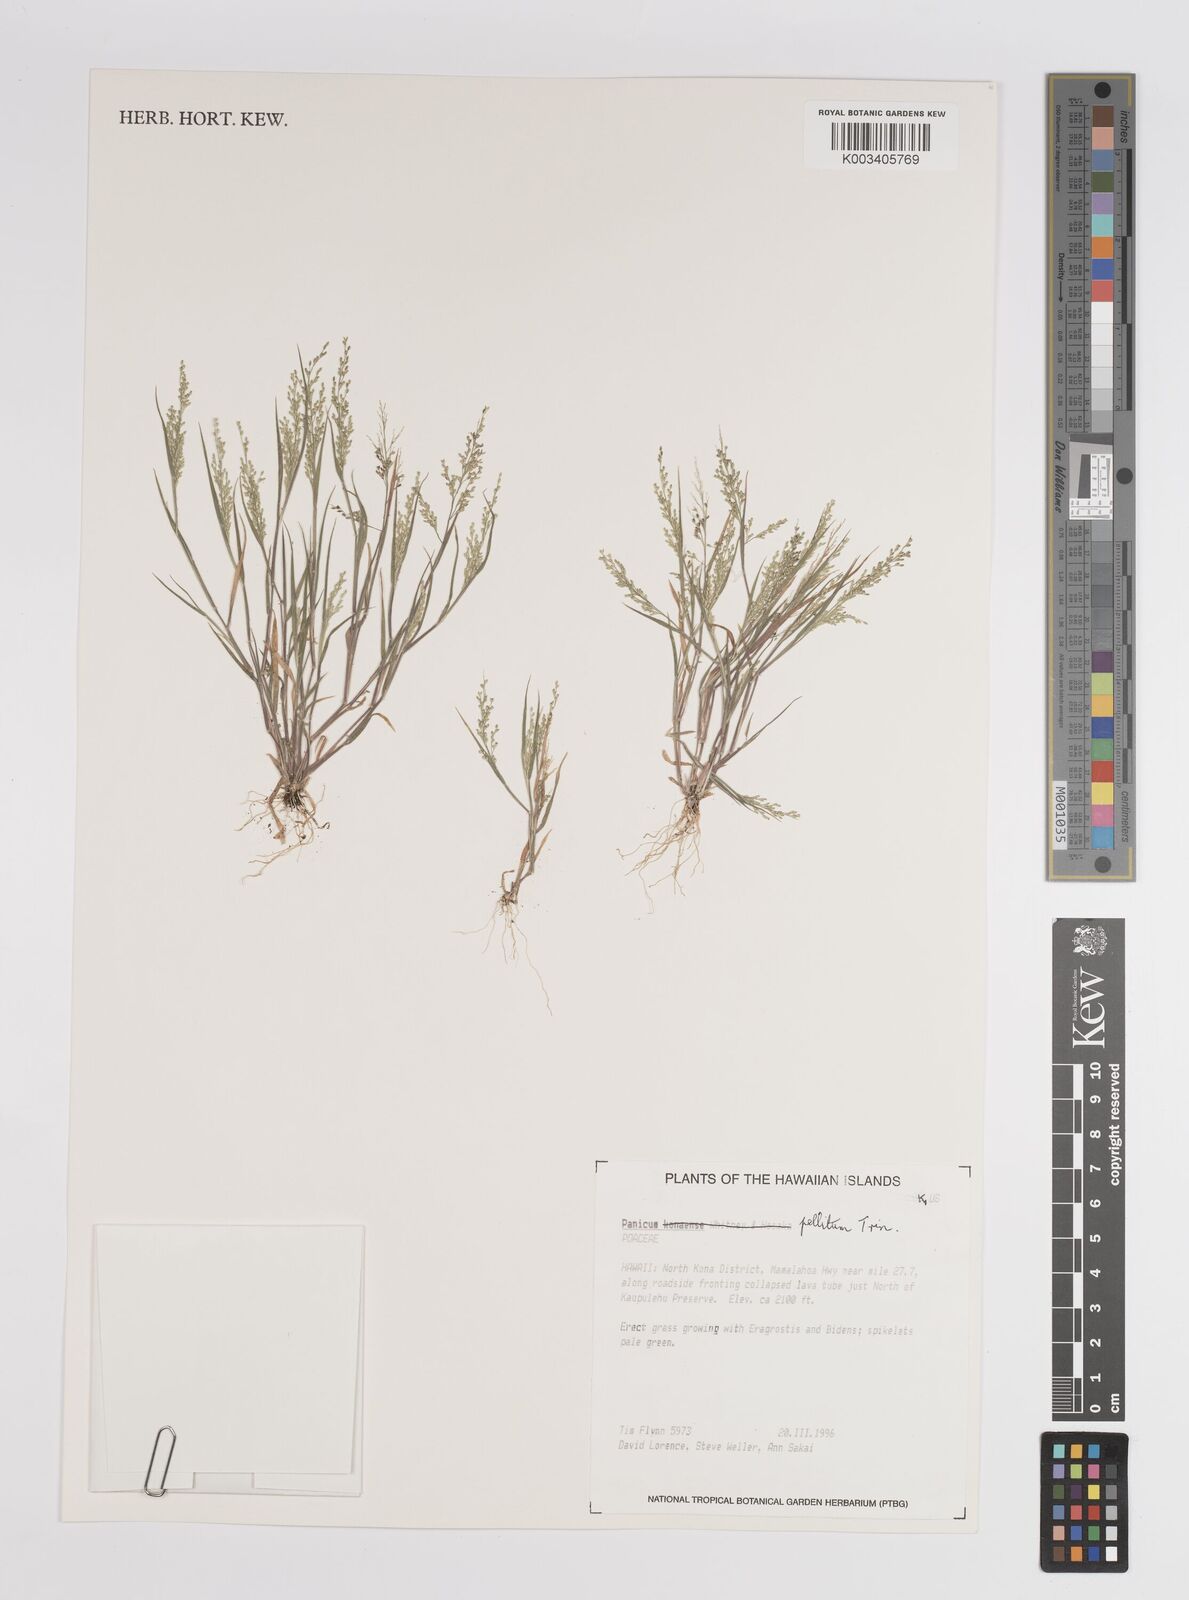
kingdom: Plantae
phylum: Tracheophyta
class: Liliopsida
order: Poales
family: Poaceae
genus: Panicum
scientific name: Panicum pellitum
